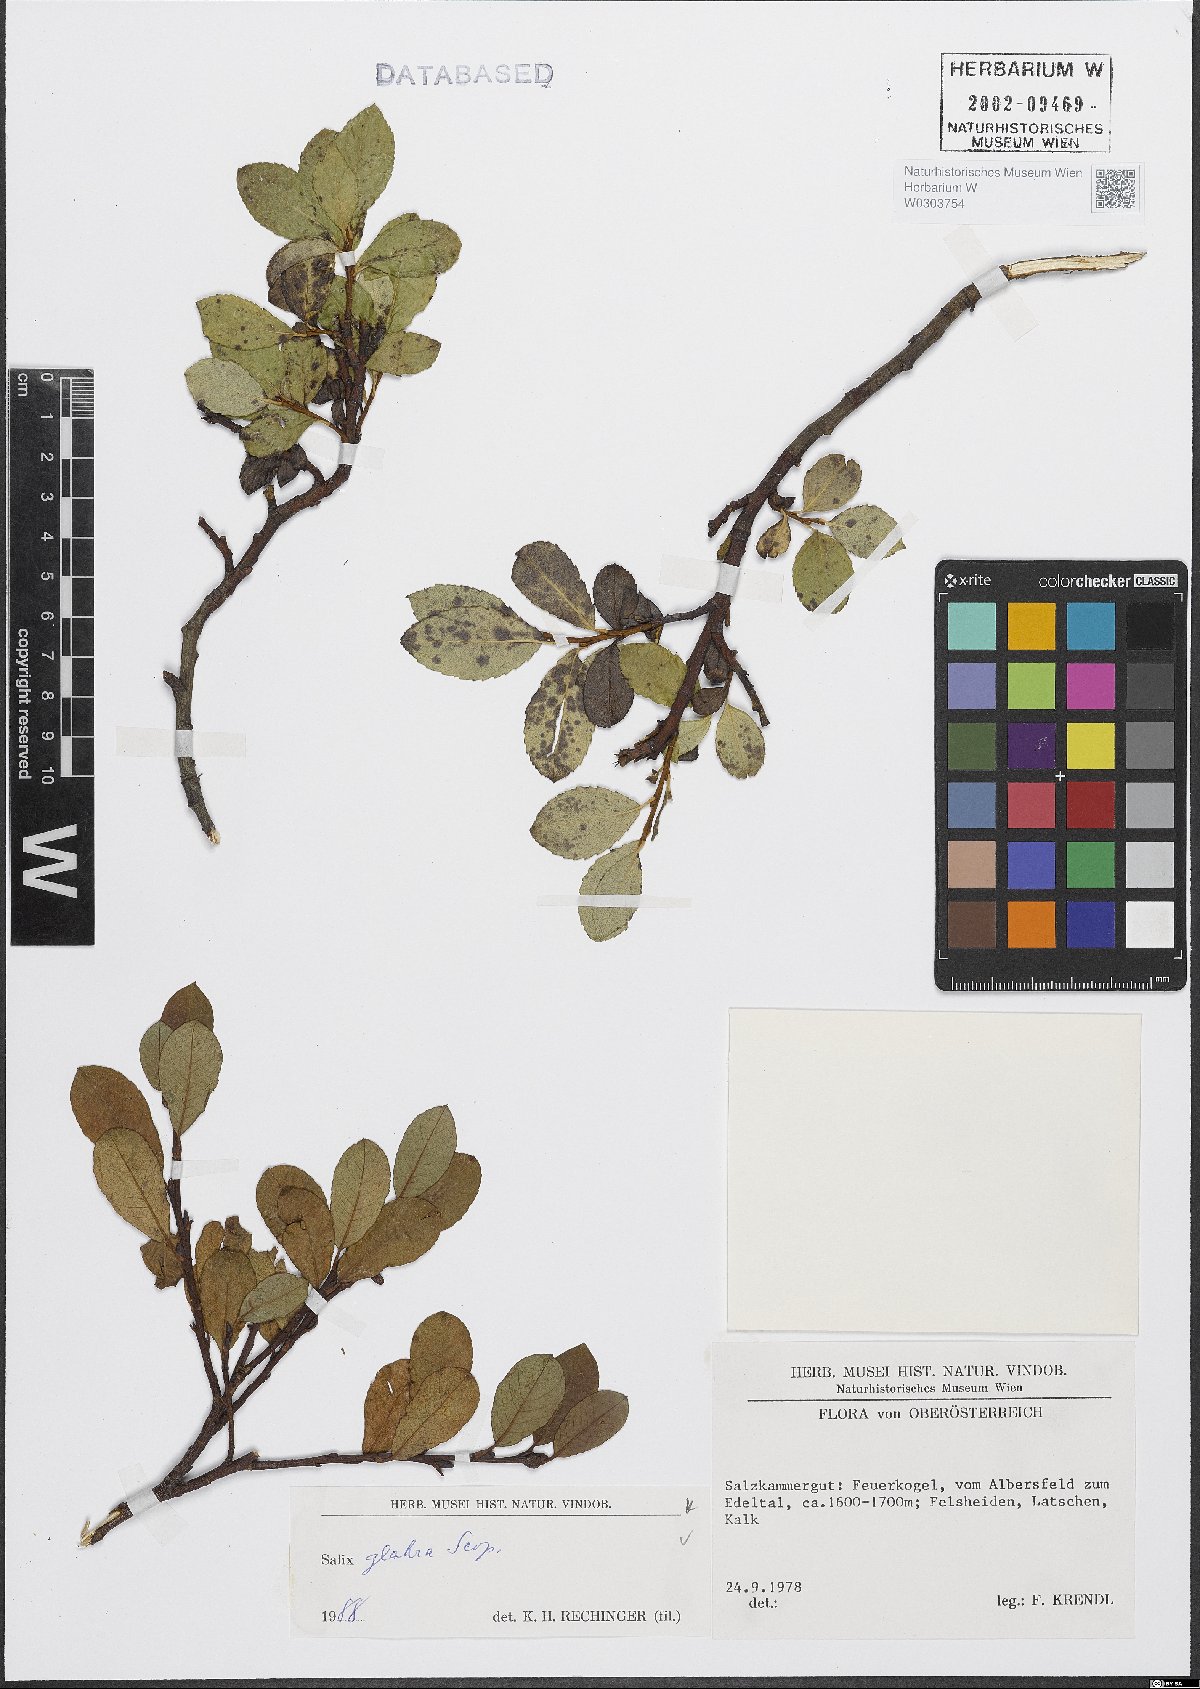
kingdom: Plantae
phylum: Tracheophyta
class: Magnoliopsida
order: Malpighiales
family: Salicaceae
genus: Salix
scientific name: Salix glabra
